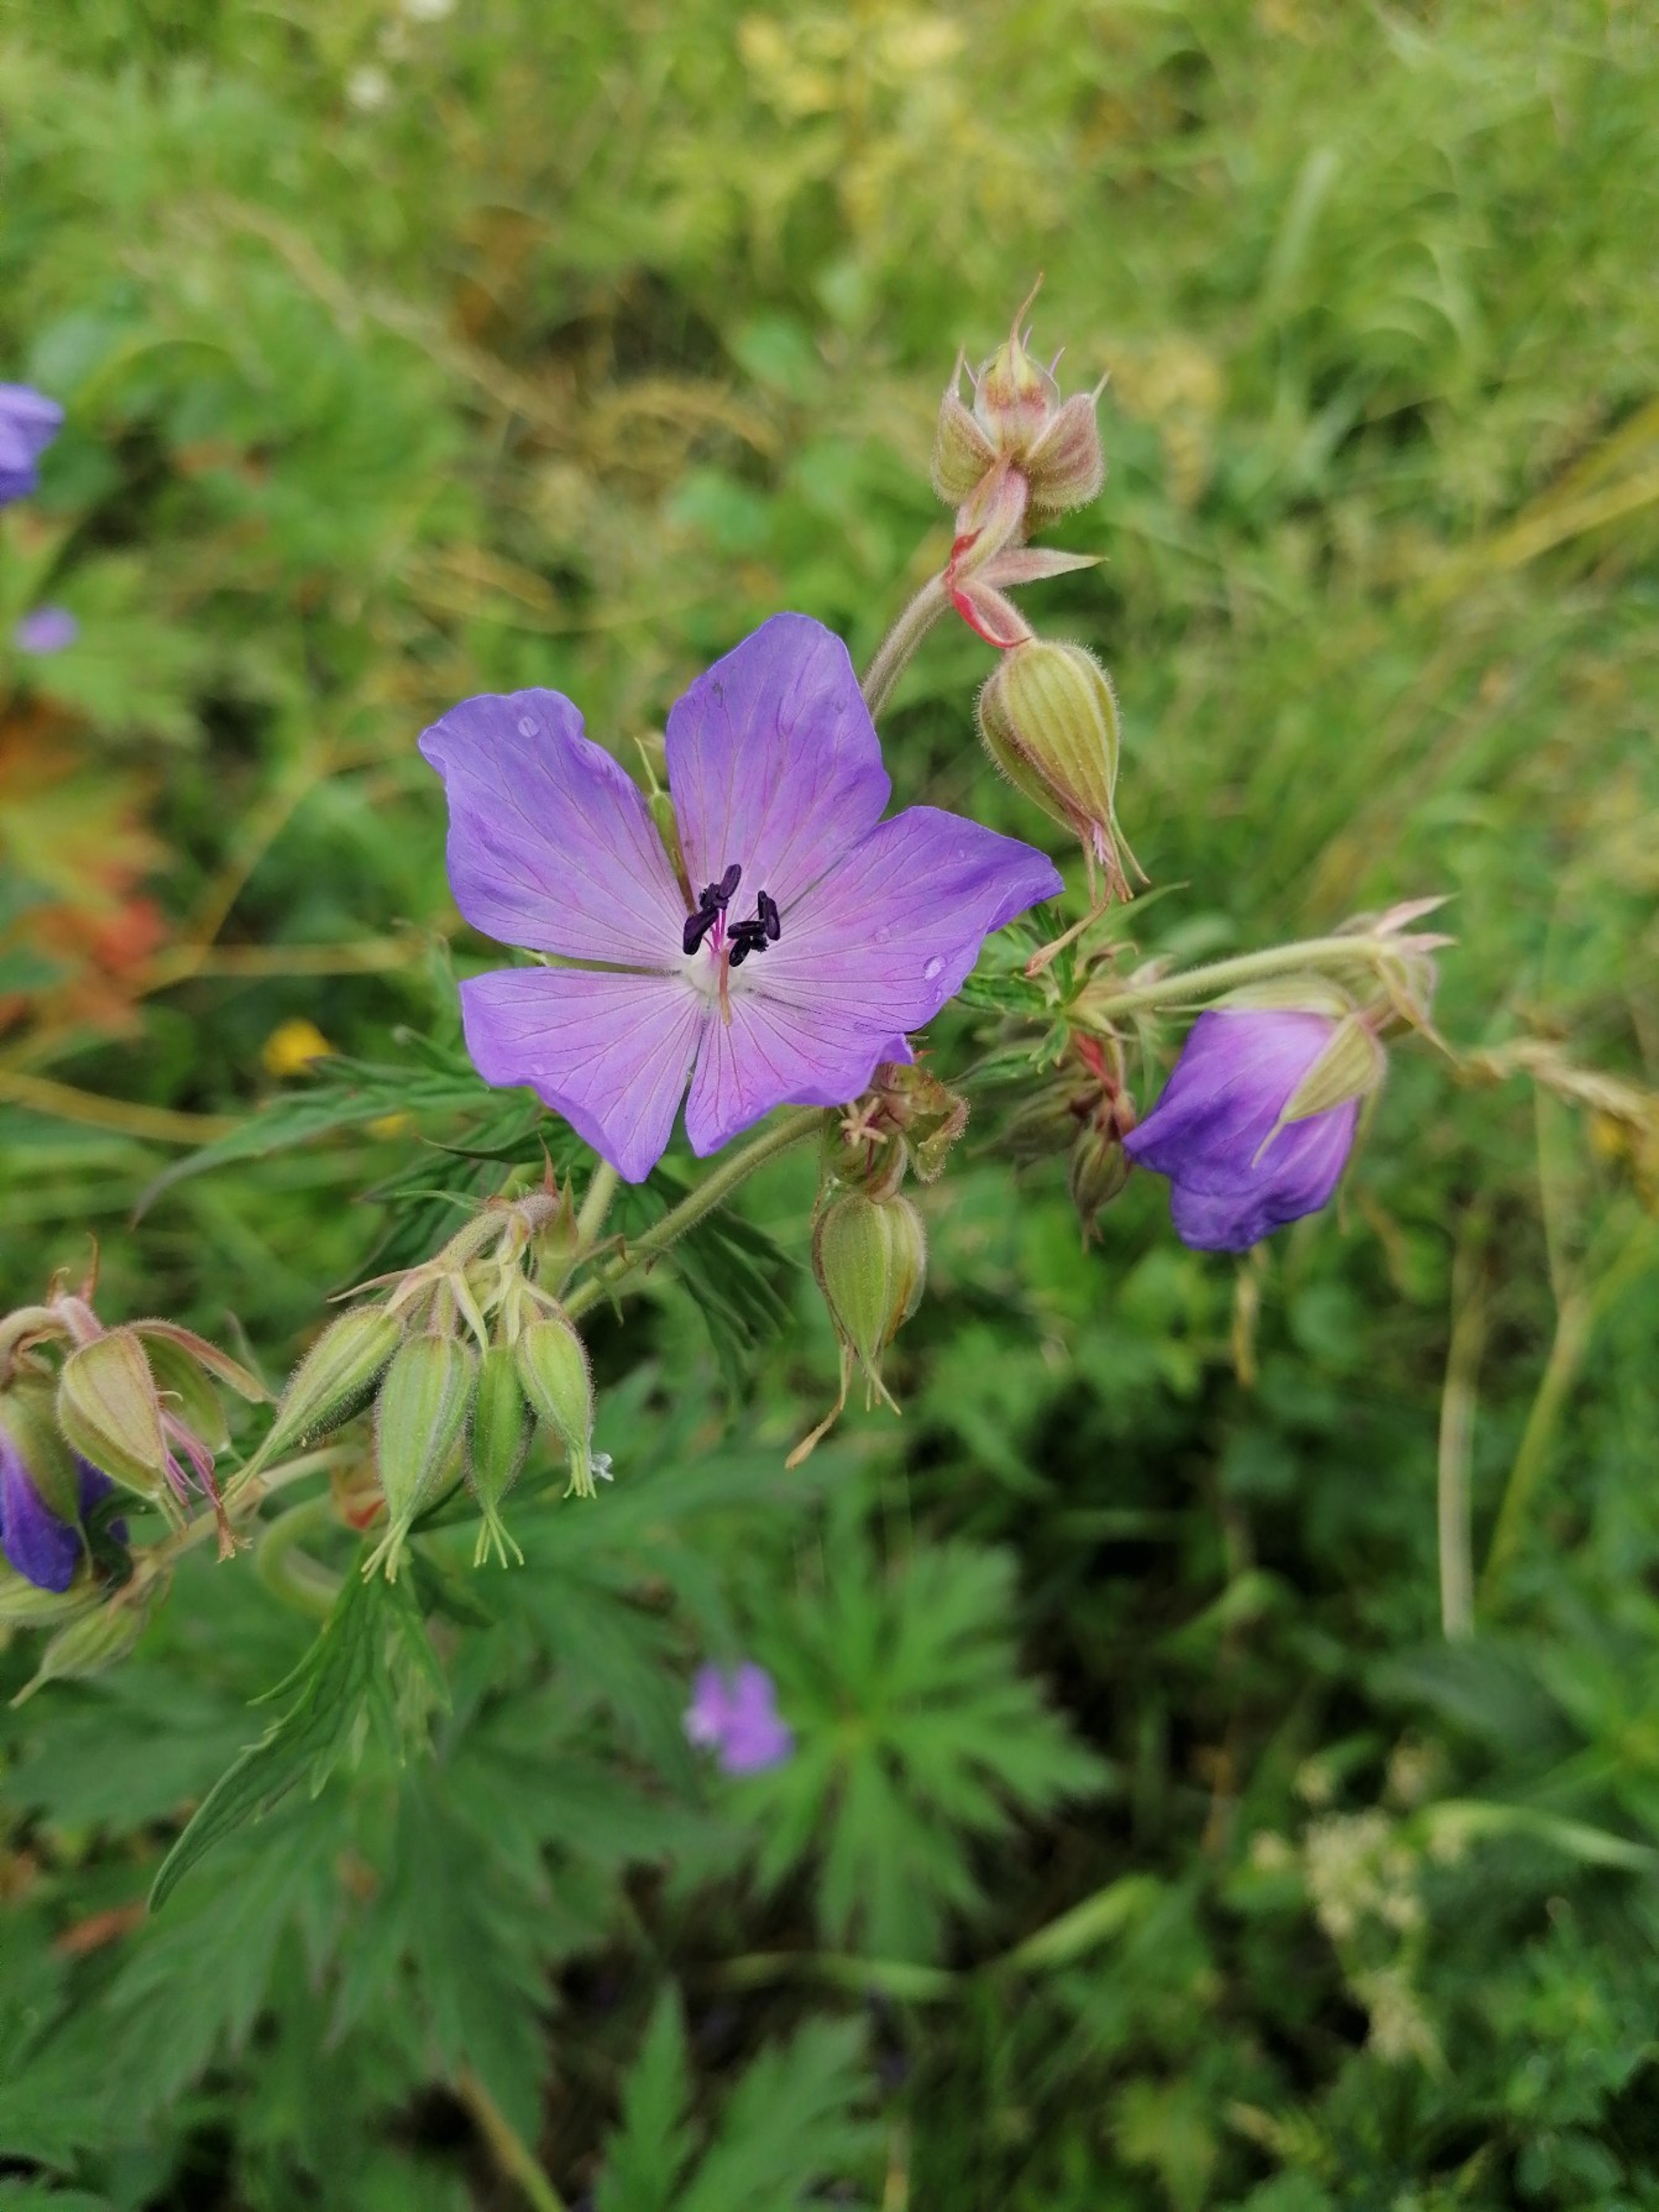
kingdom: Plantae
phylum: Tracheophyta
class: Magnoliopsida
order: Geraniales
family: Geraniaceae
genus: Geranium
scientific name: Geranium pratense
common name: Eng-storkenæb
